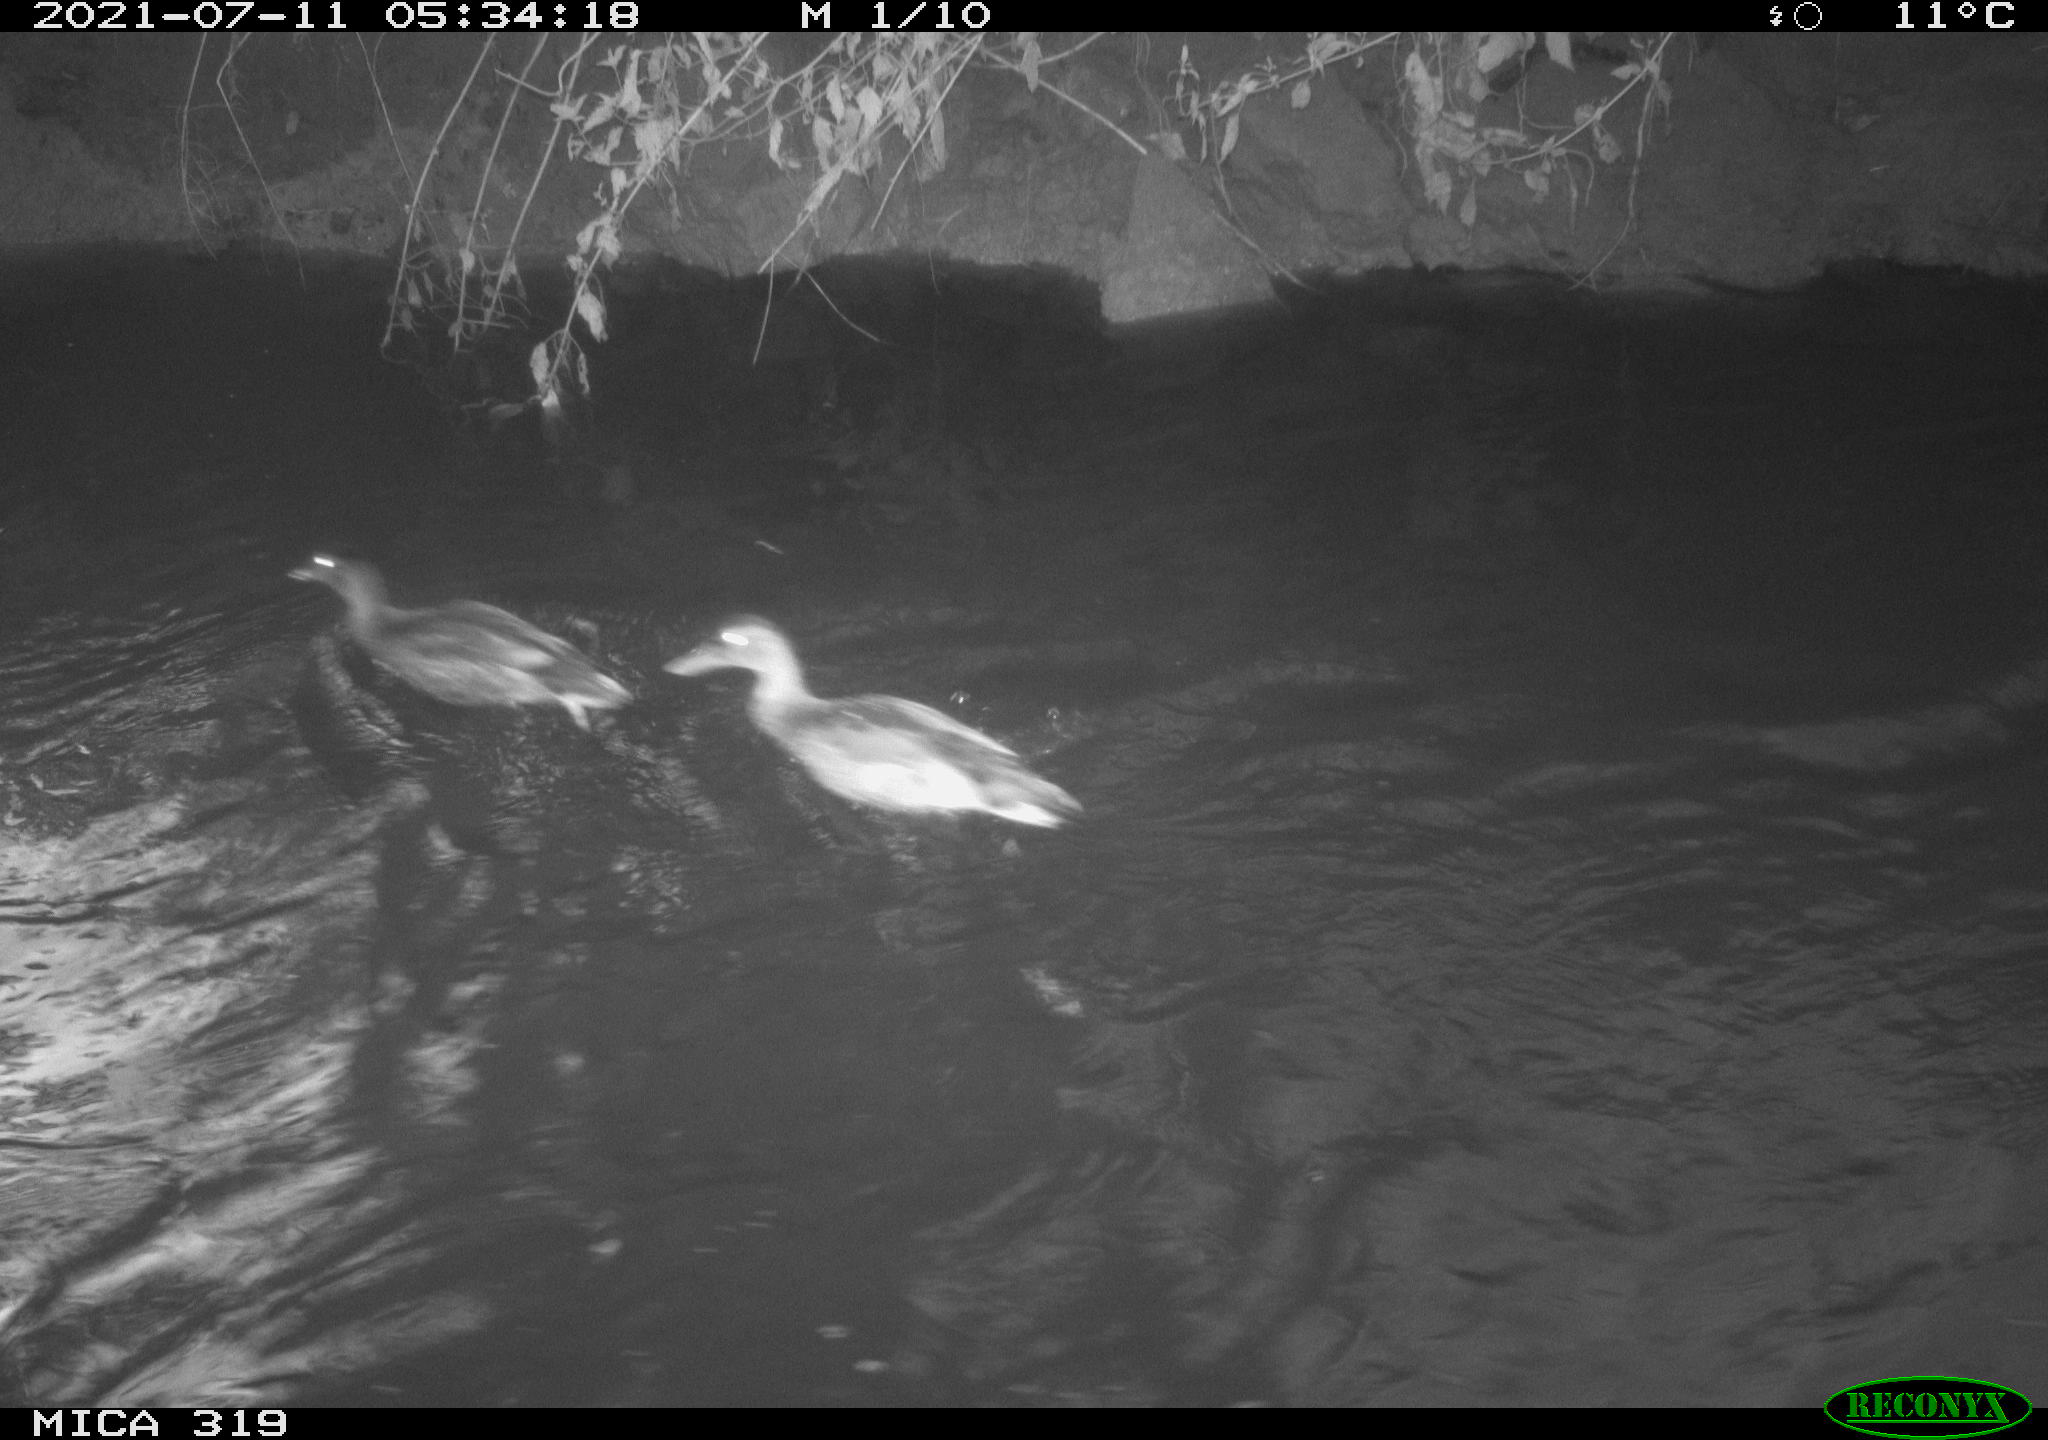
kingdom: Animalia
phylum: Chordata
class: Aves
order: Anseriformes
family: Anatidae
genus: Anas
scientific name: Anas platyrhynchos
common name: Mallard
